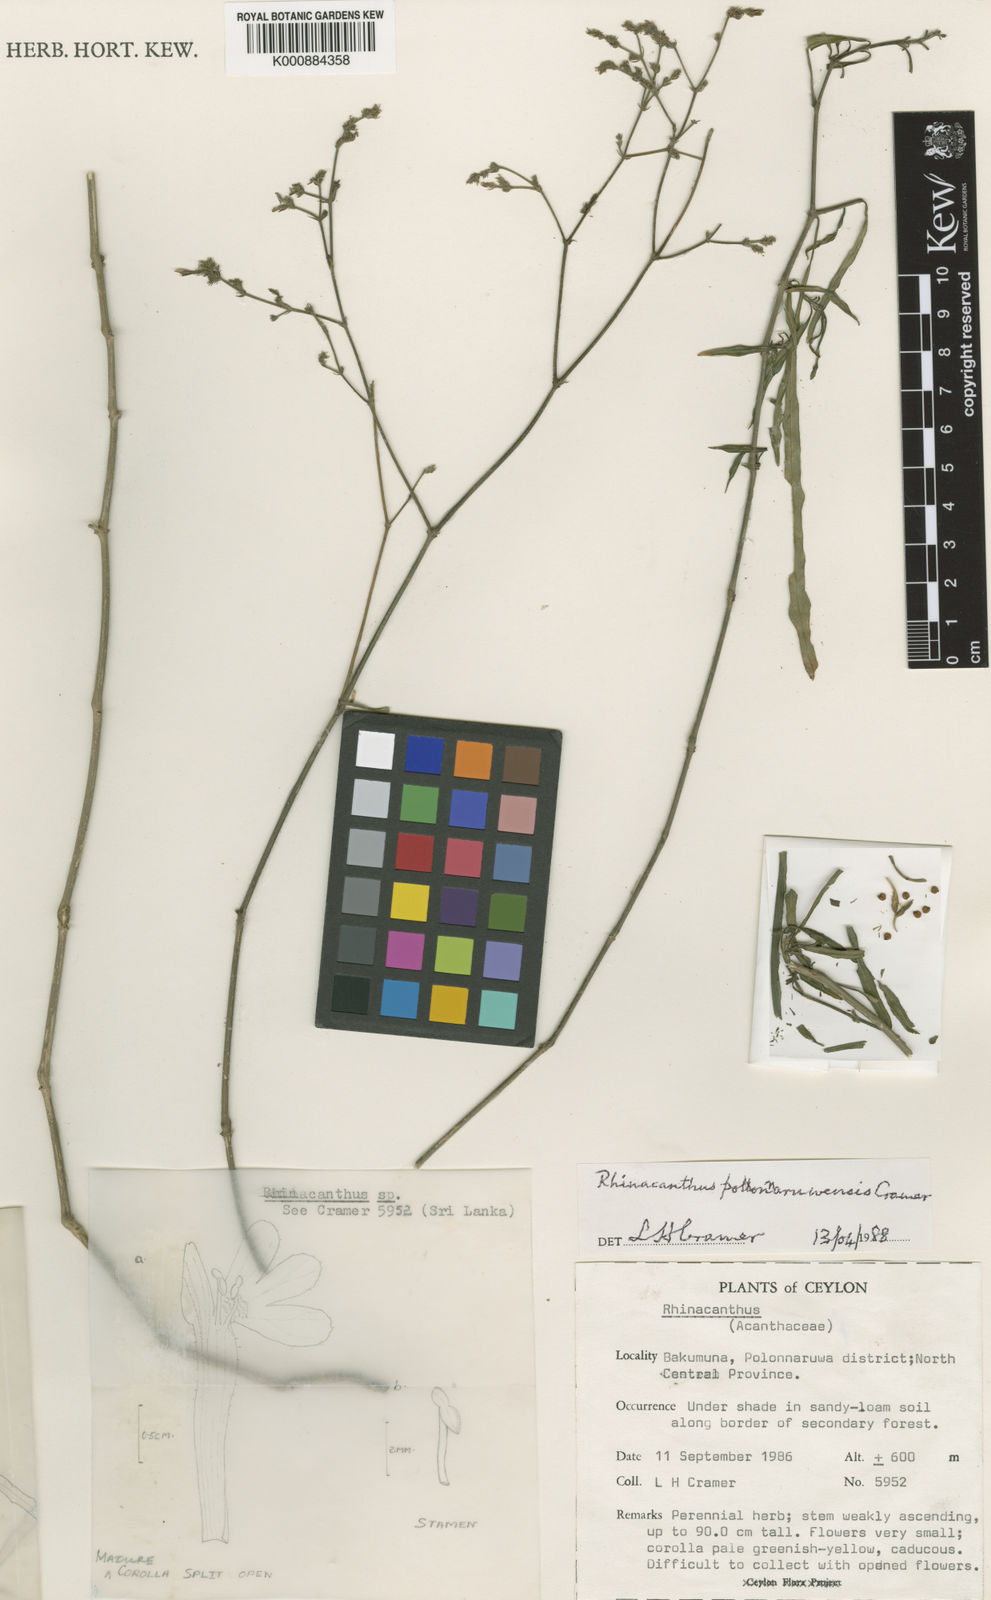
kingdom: Plantae
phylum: Tracheophyta
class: Magnoliopsida
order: Lamiales
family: Acanthaceae
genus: Rhinacanthus
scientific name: Rhinacanthus polonnaruwensis
